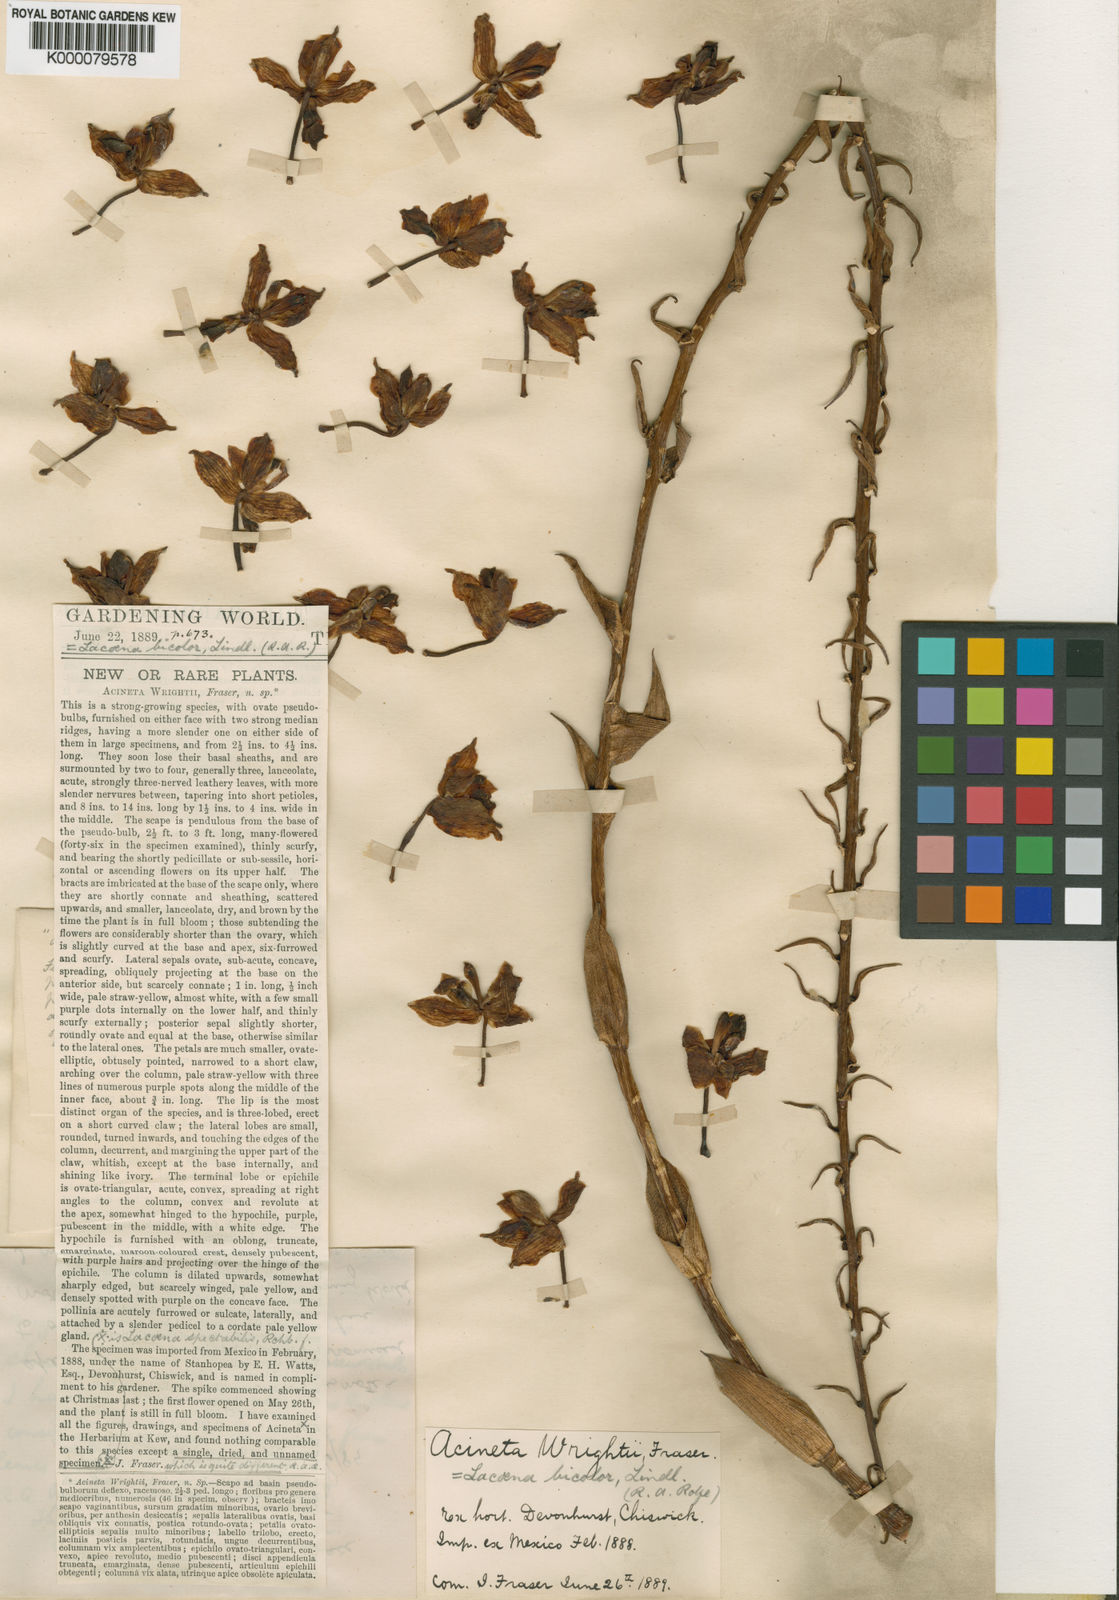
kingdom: Plantae
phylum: Tracheophyta
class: Liliopsida
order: Asparagales
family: Orchidaceae
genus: Lacaena
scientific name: Lacaena bicolor
